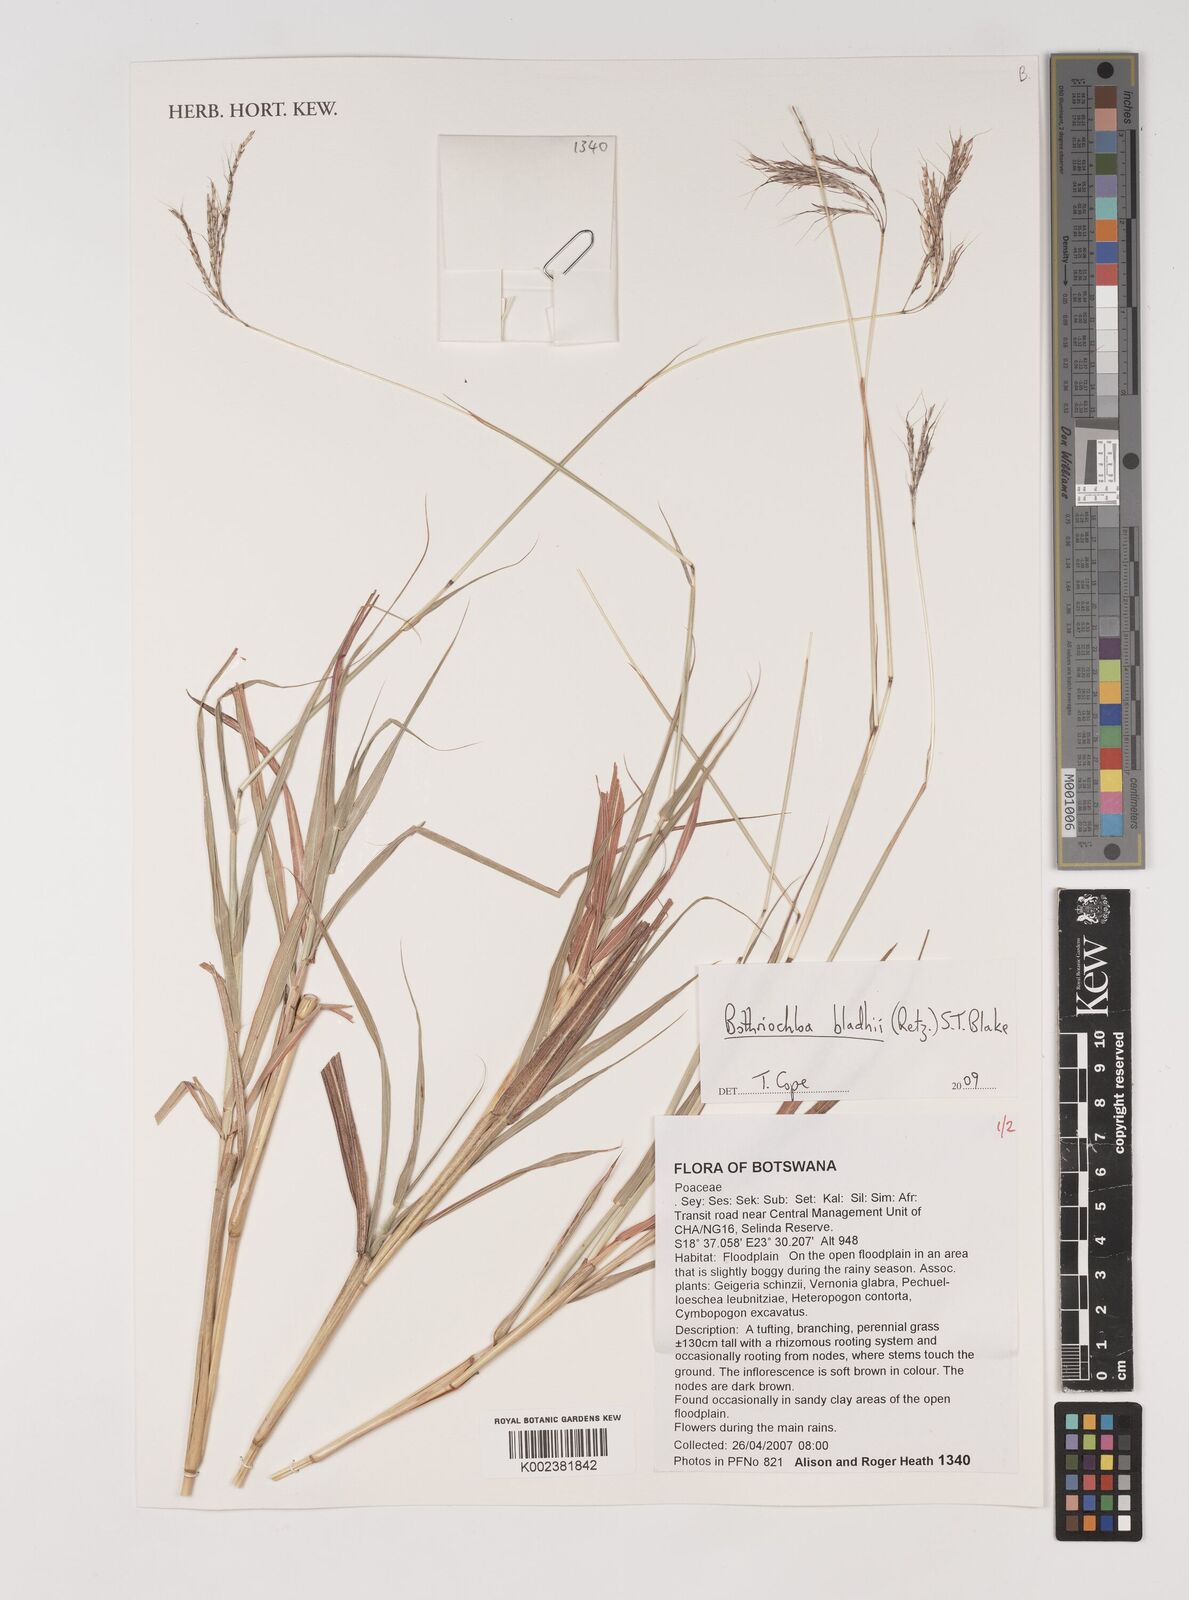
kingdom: Plantae
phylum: Tracheophyta
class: Liliopsida
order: Poales
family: Poaceae
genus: Bothriochloa
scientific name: Bothriochloa bladhii
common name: Caucasian bluestem
